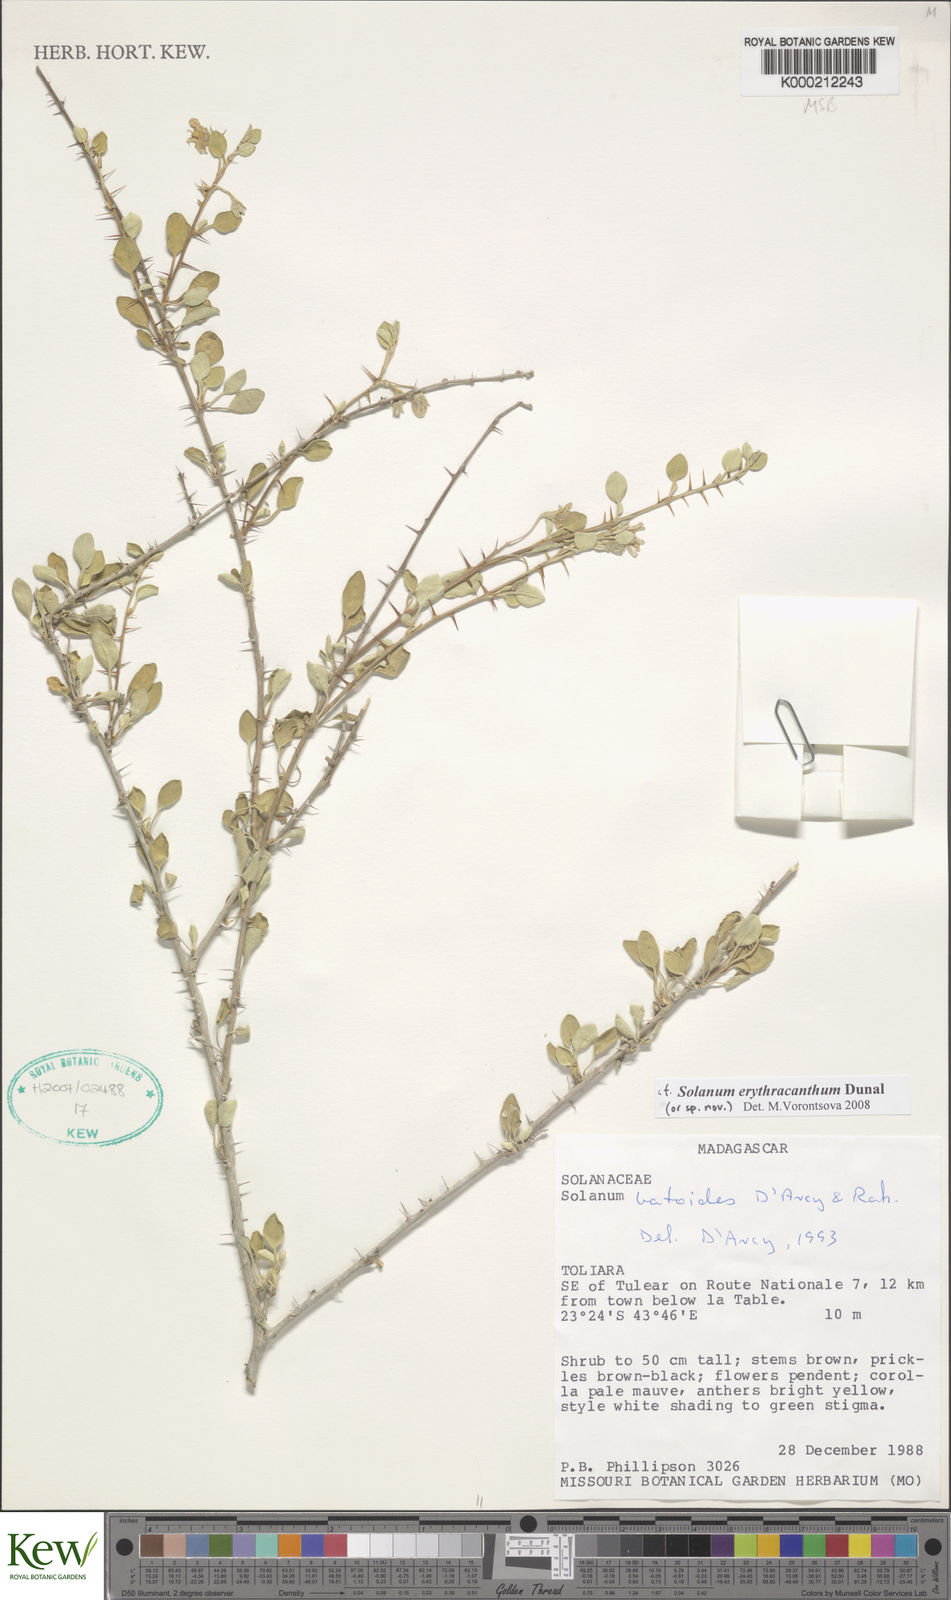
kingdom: Plantae
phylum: Tracheophyta
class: Magnoliopsida
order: Solanales
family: Solanaceae
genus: Solanum
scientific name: Solanum batoides
